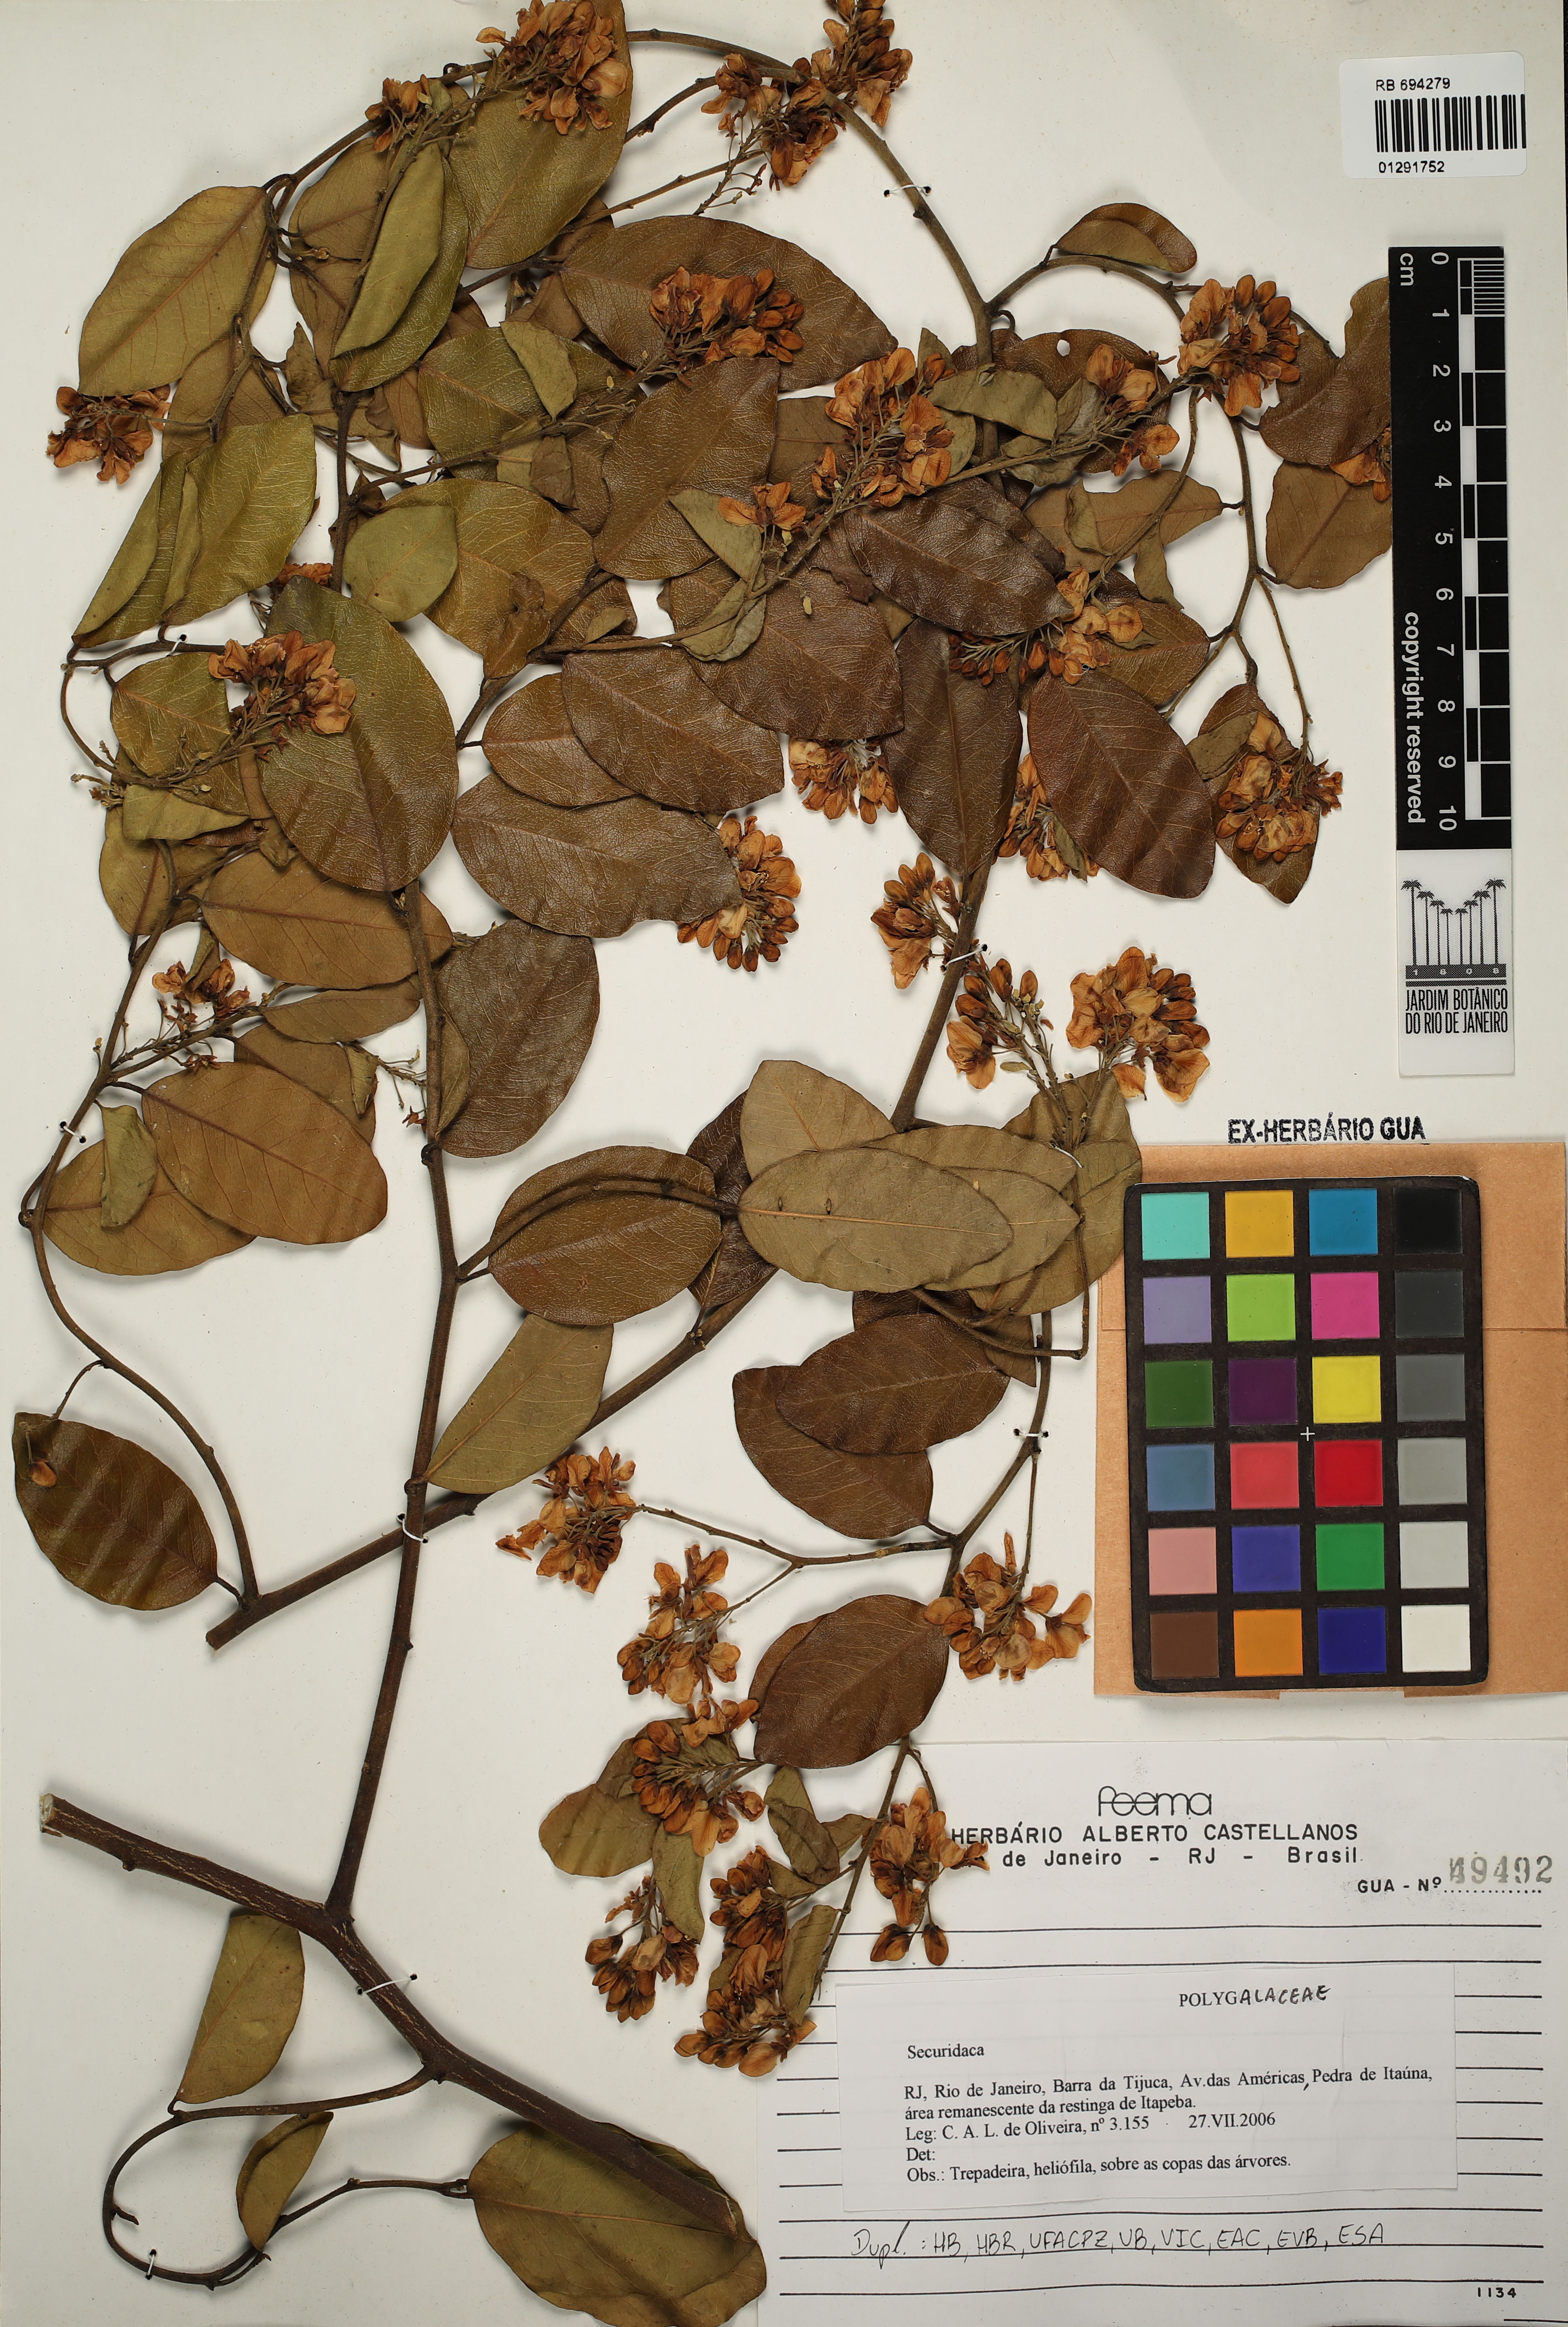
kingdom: Plantae
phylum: Tracheophyta
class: Magnoliopsida
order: Fabales
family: Polygalaceae
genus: Securidaca
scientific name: Securidaca
